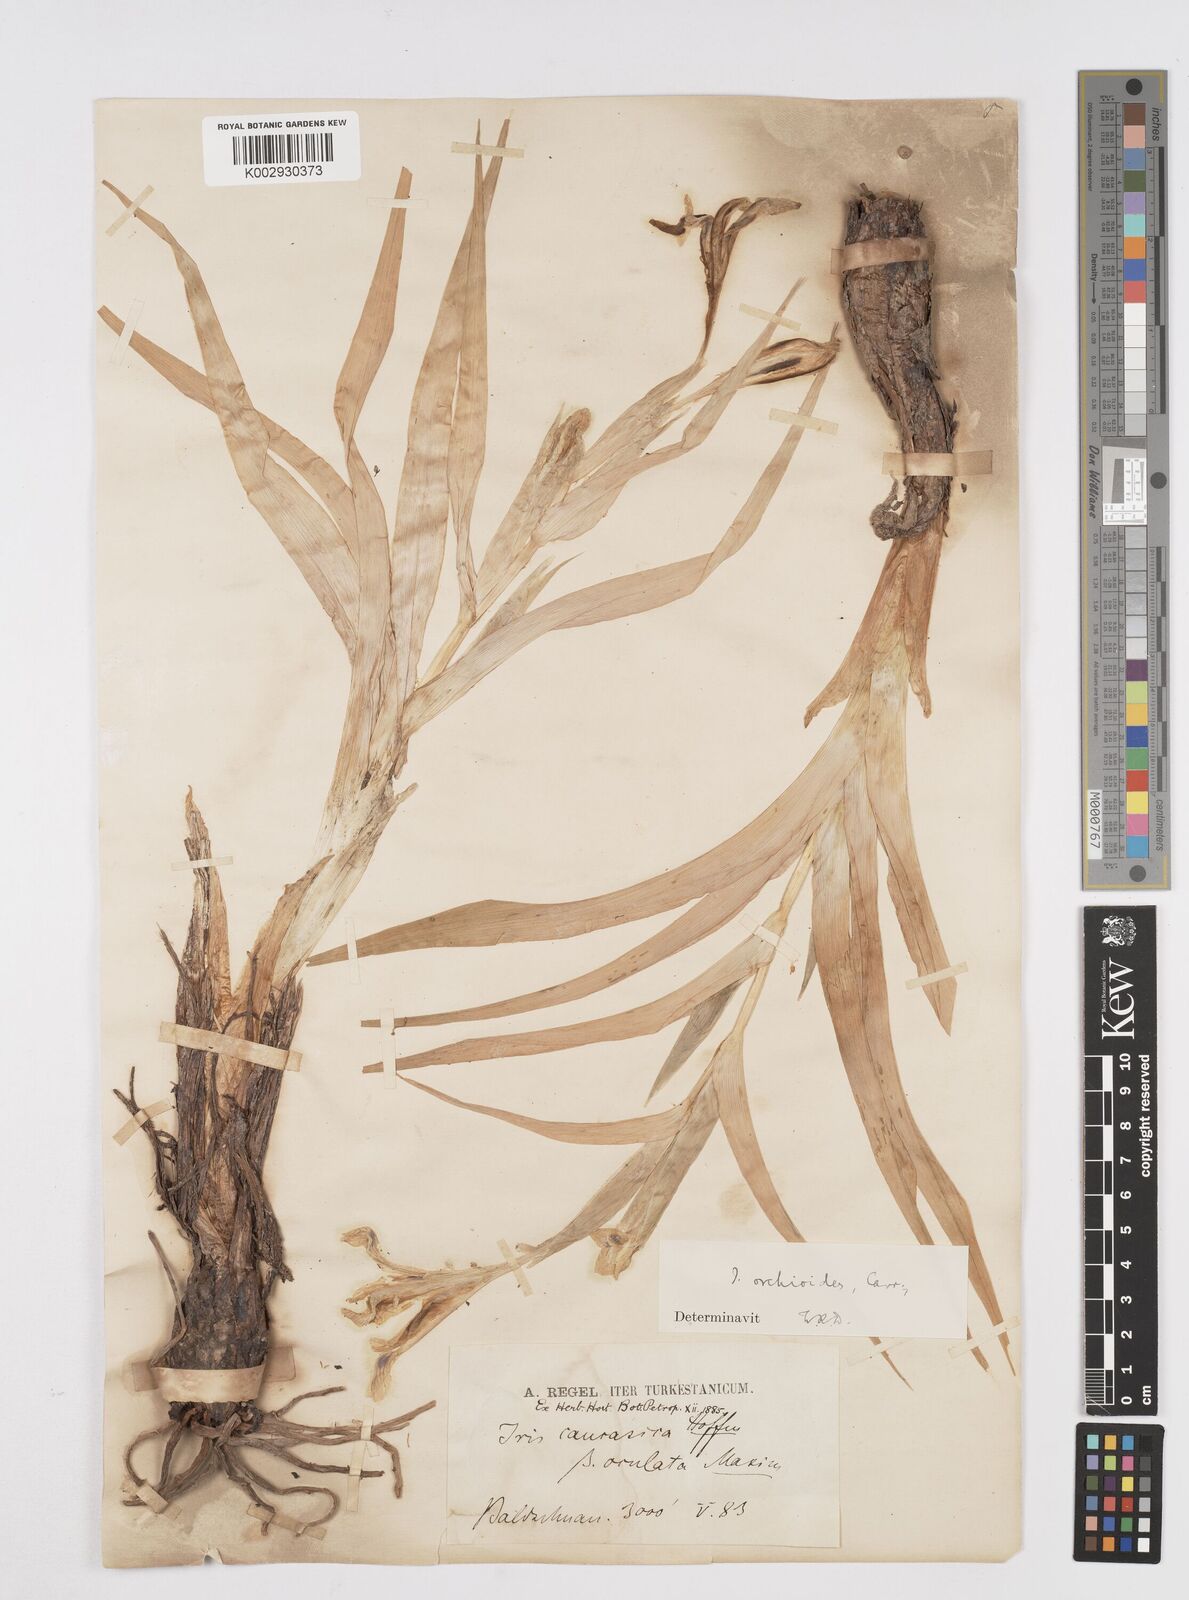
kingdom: Plantae
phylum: Tracheophyta
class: Liliopsida
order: Asparagales
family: Iridaceae
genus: Iris
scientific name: Iris orchioides
